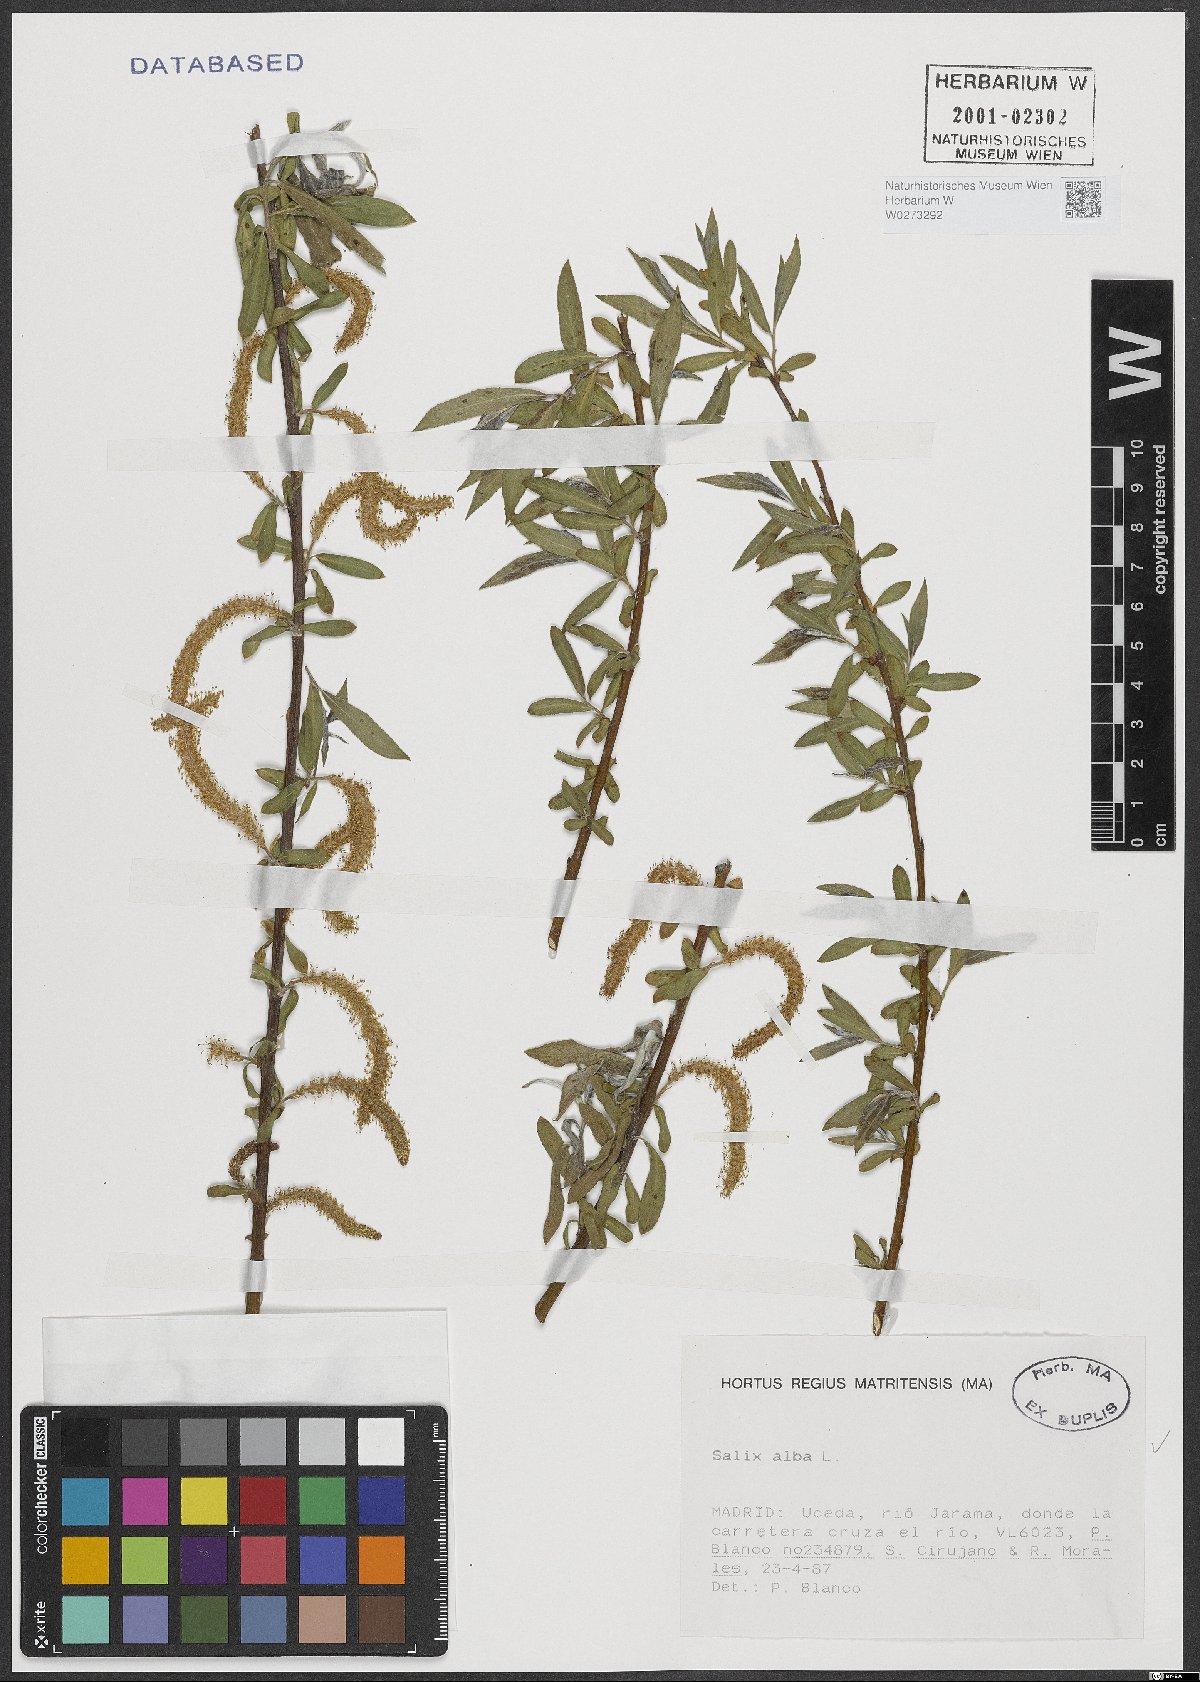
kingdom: Plantae
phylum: Tracheophyta
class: Magnoliopsida
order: Malpighiales
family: Salicaceae
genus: Salix
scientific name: Salix alba
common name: White willow
